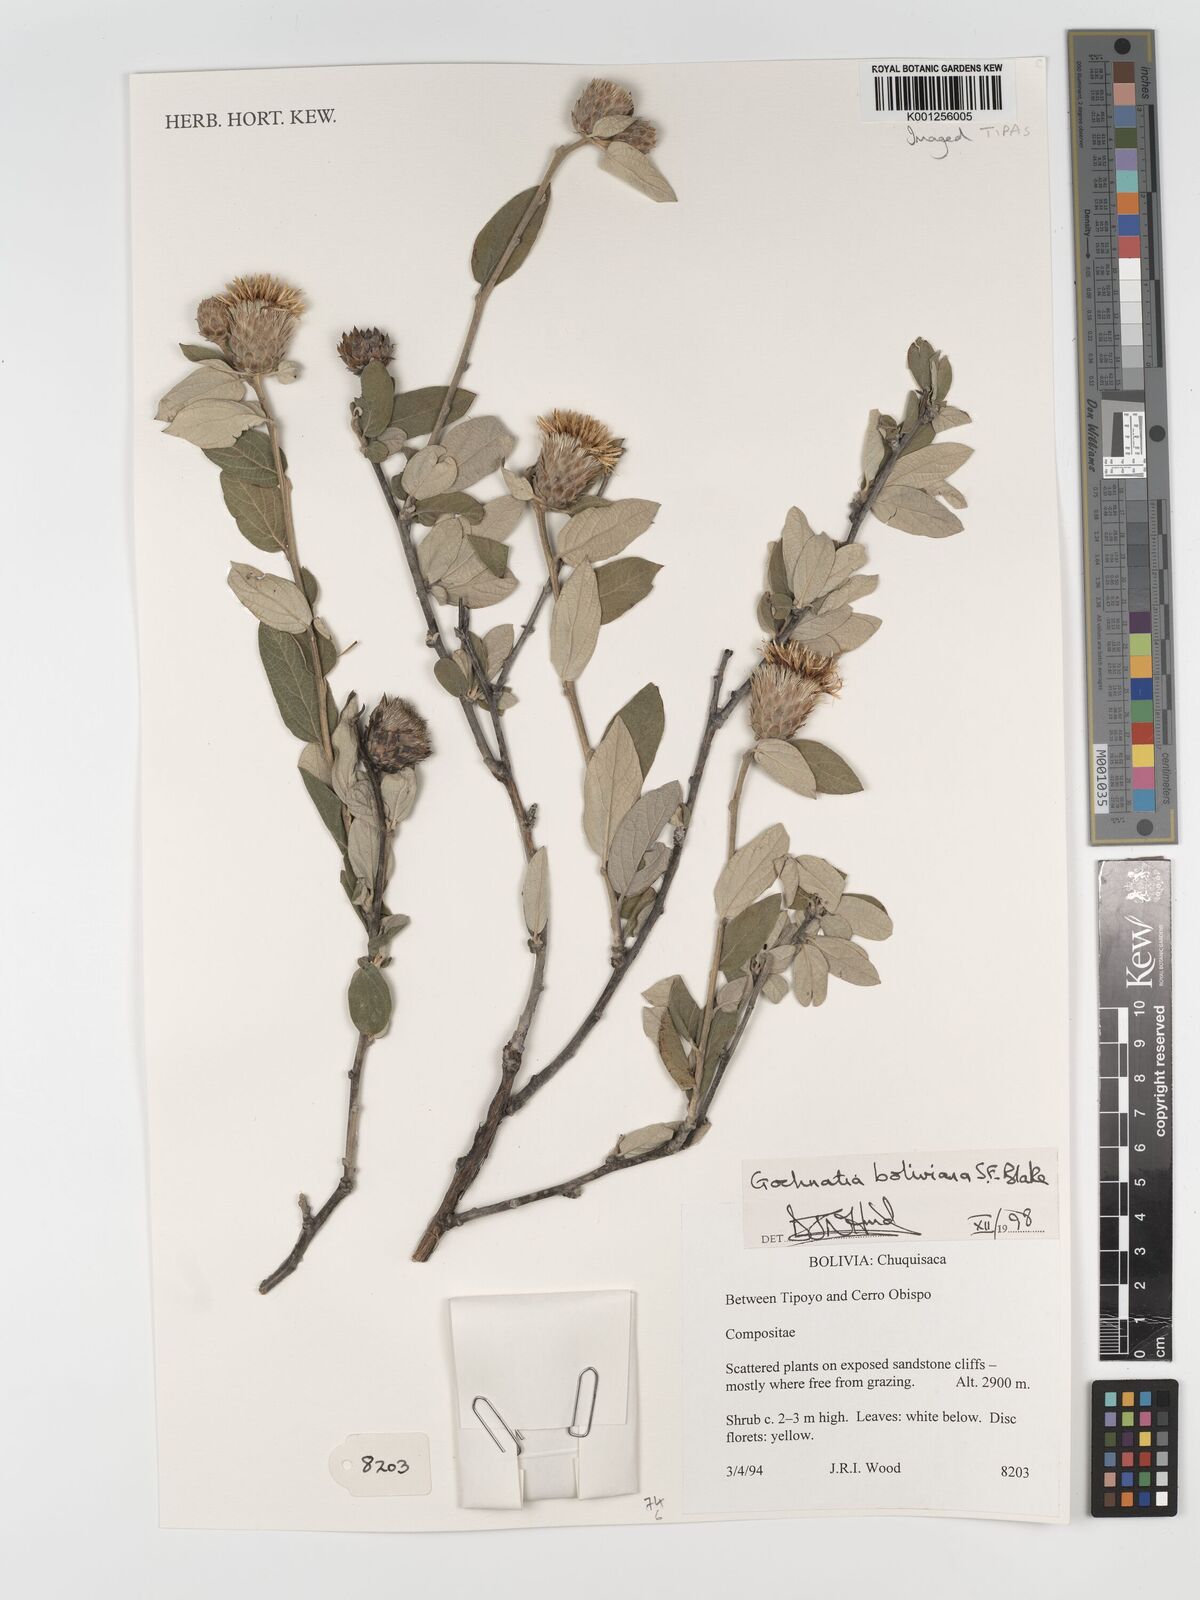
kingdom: Plantae
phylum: Tracheophyta
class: Magnoliopsida
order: Asterales
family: Asteraceae
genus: Gochnatia
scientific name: Gochnatia boliviana
